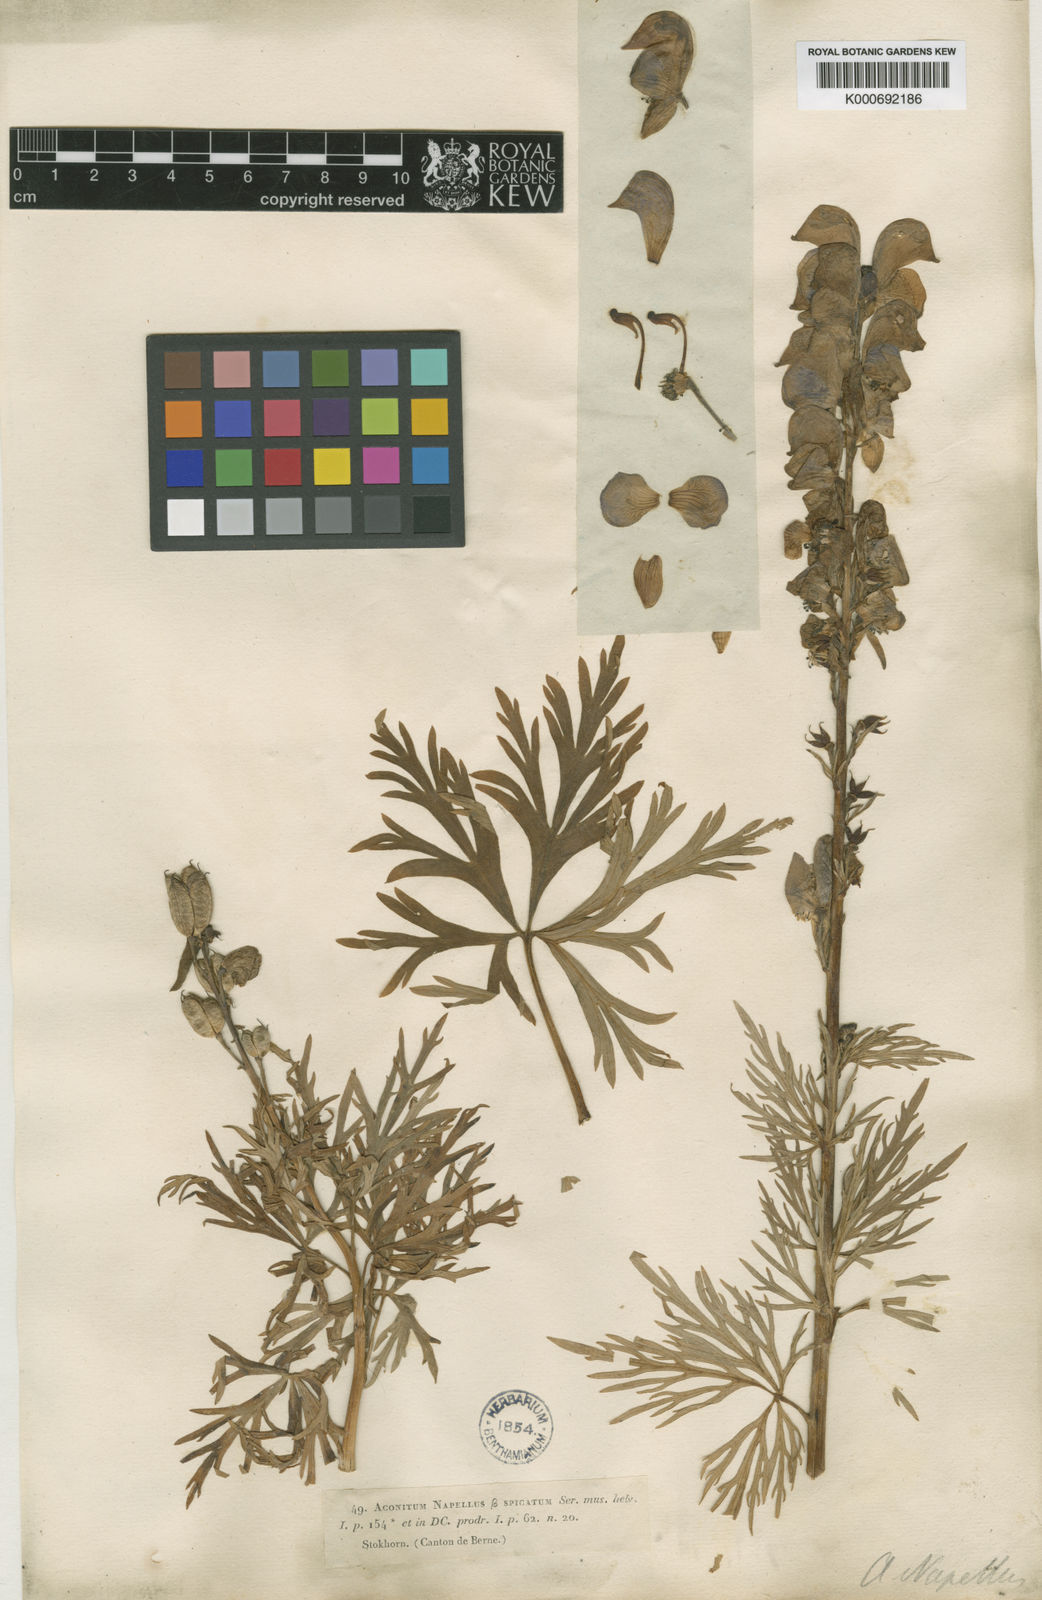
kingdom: Plantae
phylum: Tracheophyta
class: Magnoliopsida
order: Ranunculales
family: Ranunculaceae
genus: Aconitum
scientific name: Aconitum
